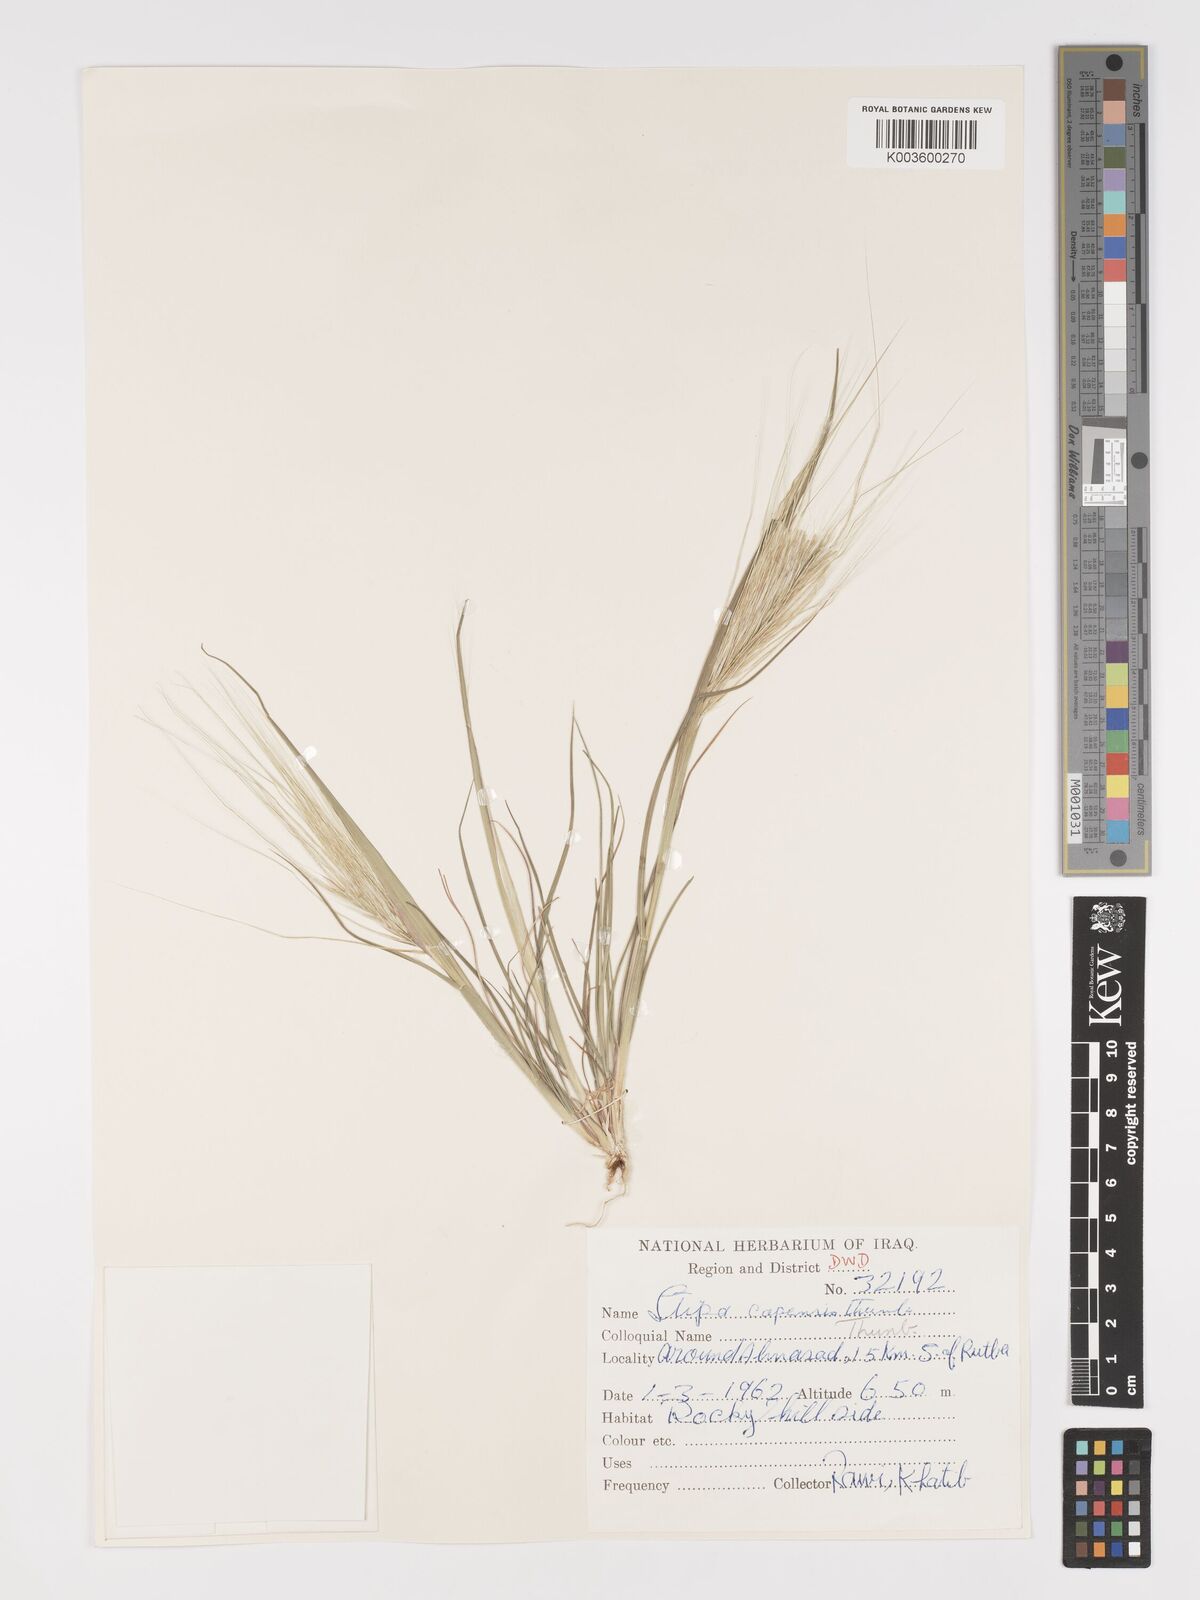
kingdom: Plantae
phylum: Tracheophyta
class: Liliopsida
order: Poales
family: Poaceae
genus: Stipellula
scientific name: Stipellula capensis
